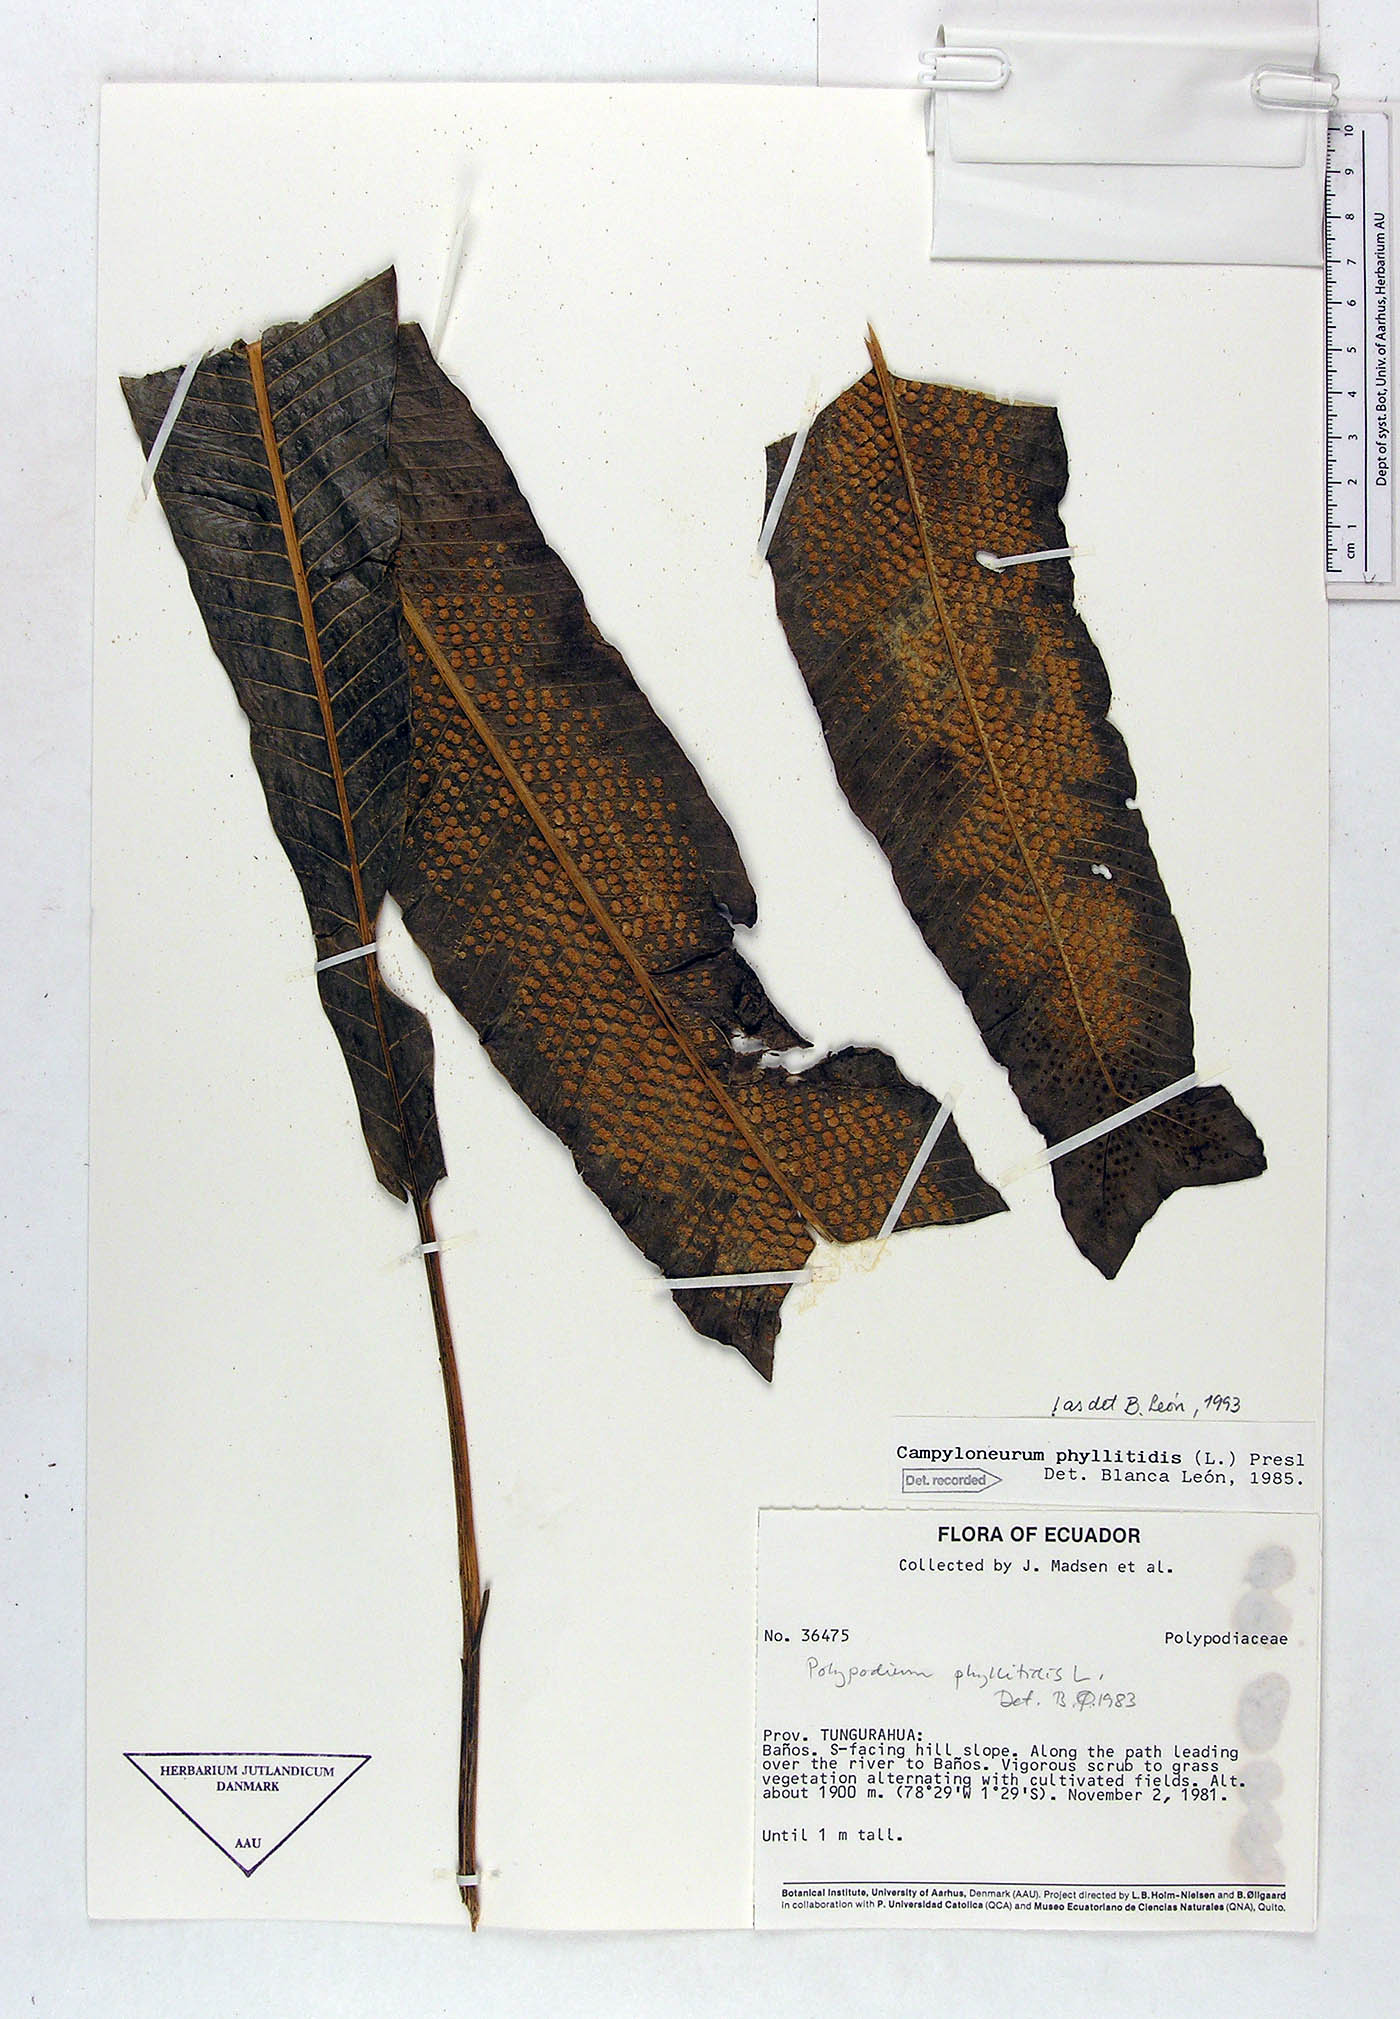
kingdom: Plantae
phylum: Tracheophyta
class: Polypodiopsida
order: Polypodiales
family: Polypodiaceae
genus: Campyloneurum
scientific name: Campyloneurum phyllitidis
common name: Cow-tongue fern
